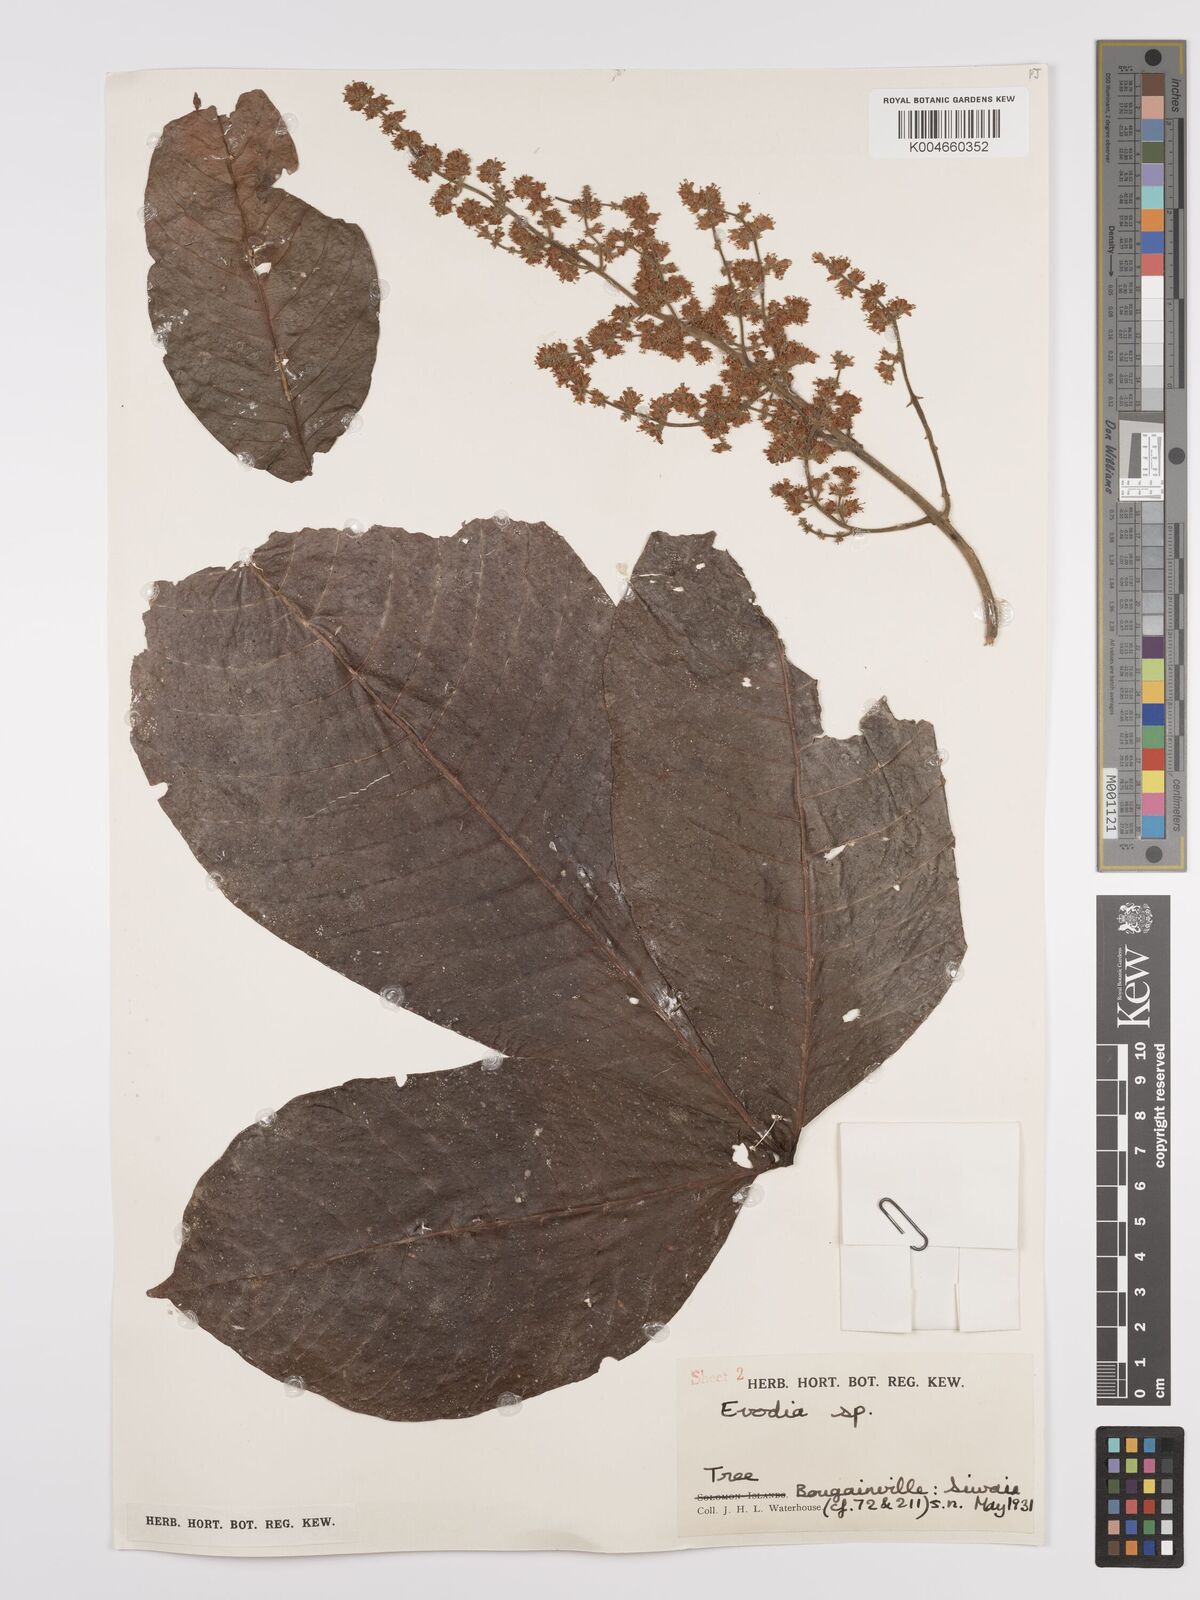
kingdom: Plantae
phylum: Tracheophyta
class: Magnoliopsida
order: Sapindales
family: Rutaceae
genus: Euodia
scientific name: Euodia
